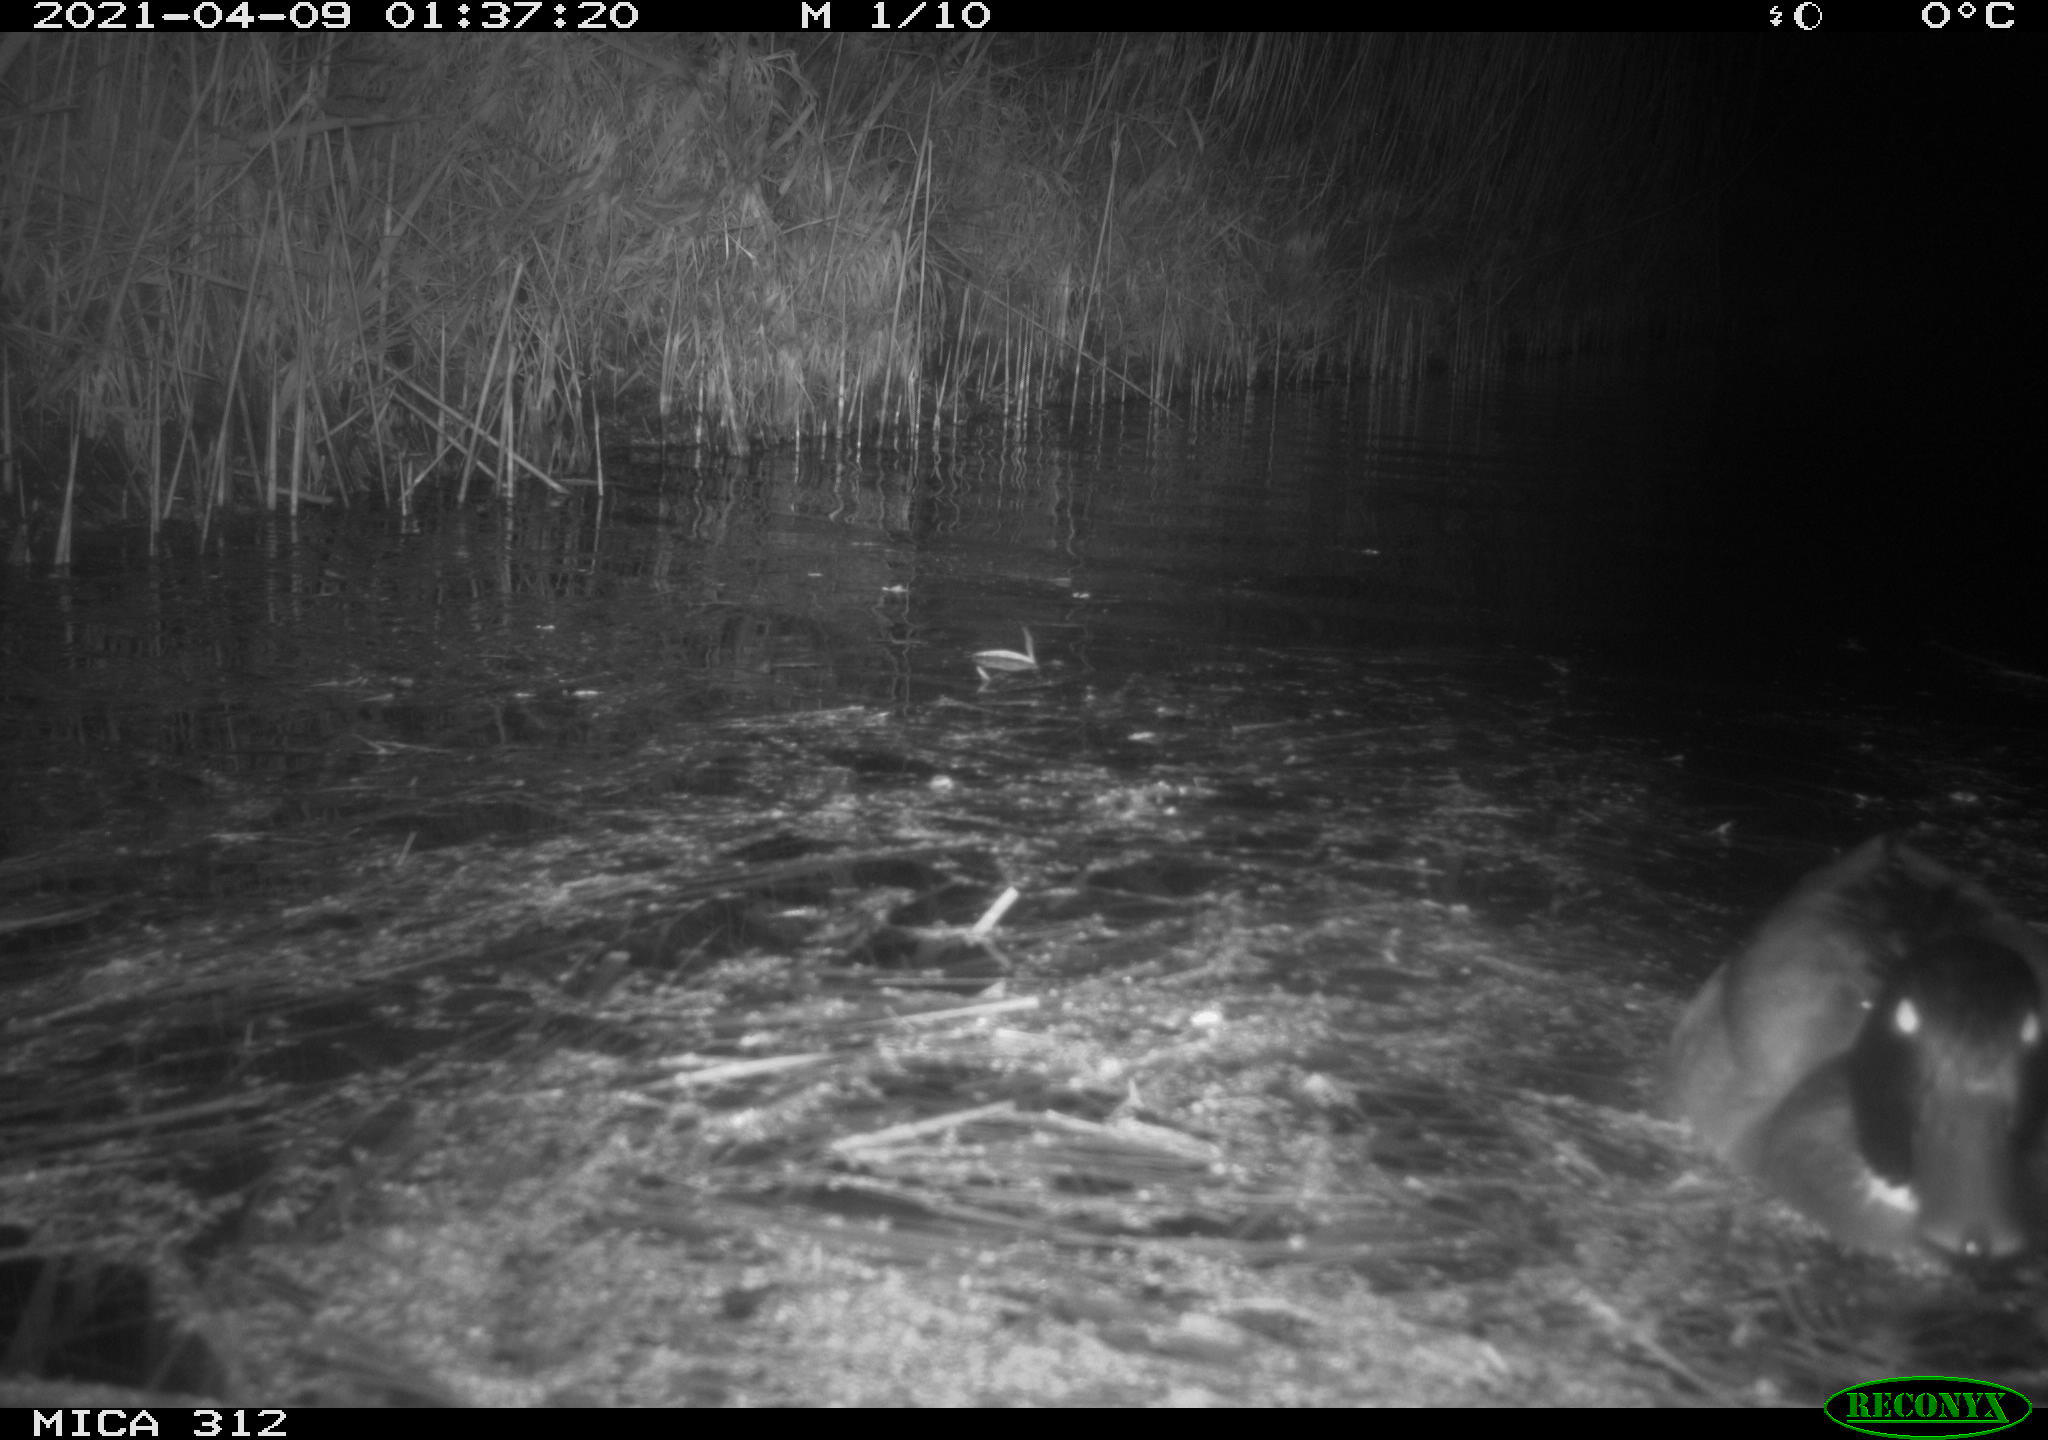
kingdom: Animalia
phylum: Chordata
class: Aves
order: Anseriformes
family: Anatidae
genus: Anas
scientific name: Anas platyrhynchos
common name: Mallard
